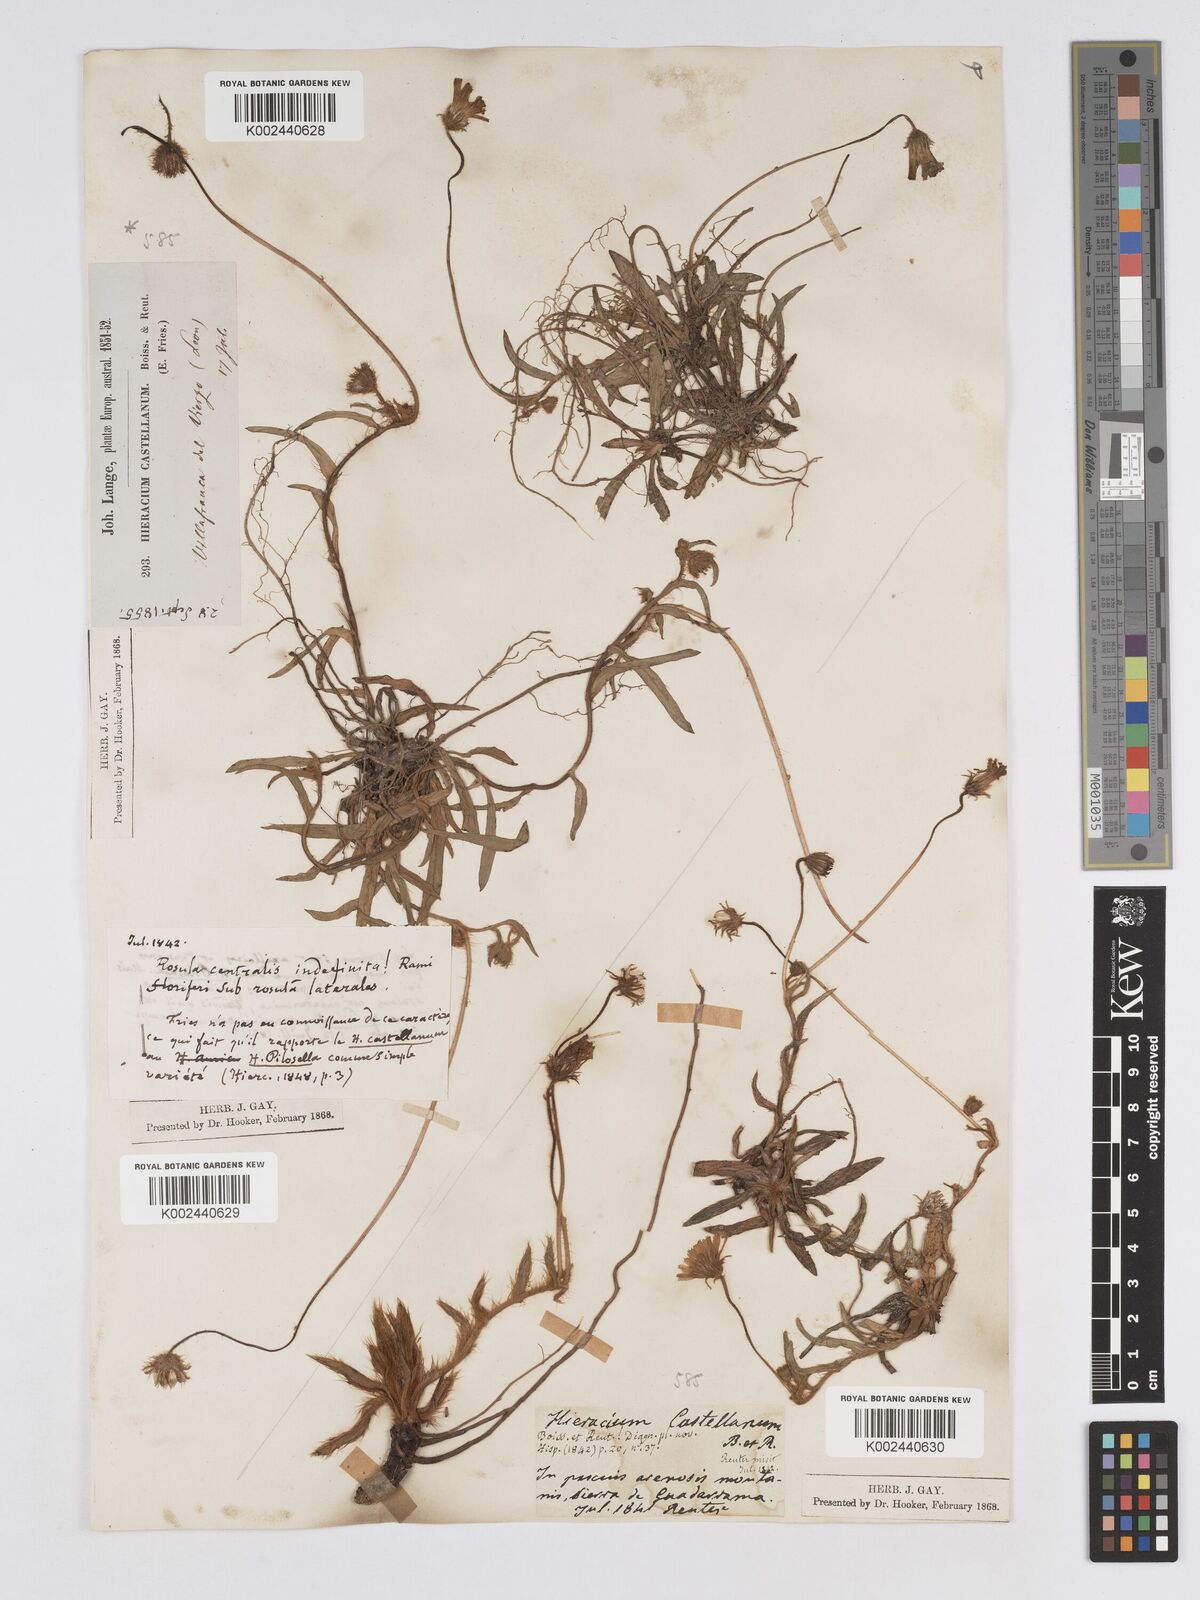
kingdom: Plantae
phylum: Tracheophyta
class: Magnoliopsida
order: Asterales
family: Asteraceae
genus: Pilosella
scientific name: Pilosella castellana
